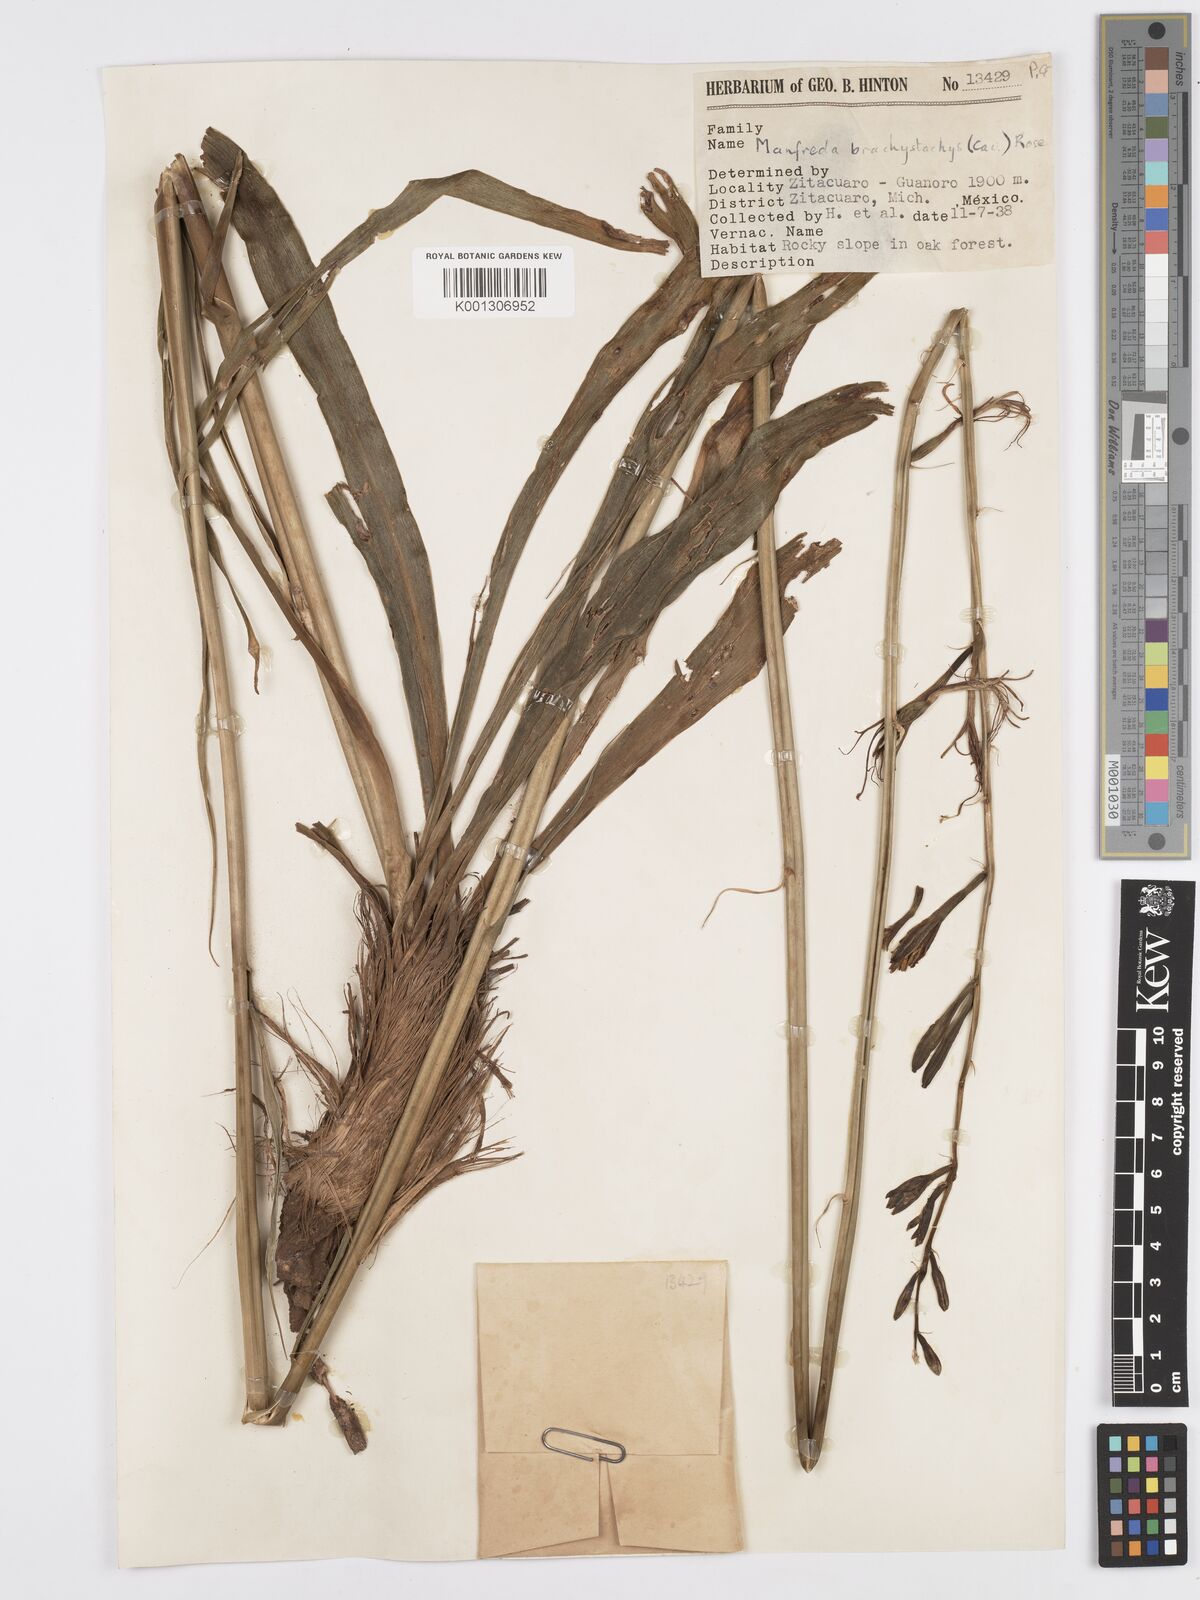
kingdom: Plantae
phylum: Tracheophyta
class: Liliopsida
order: Asparagales
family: Asparagaceae
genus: Agave
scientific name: Agave scabra
